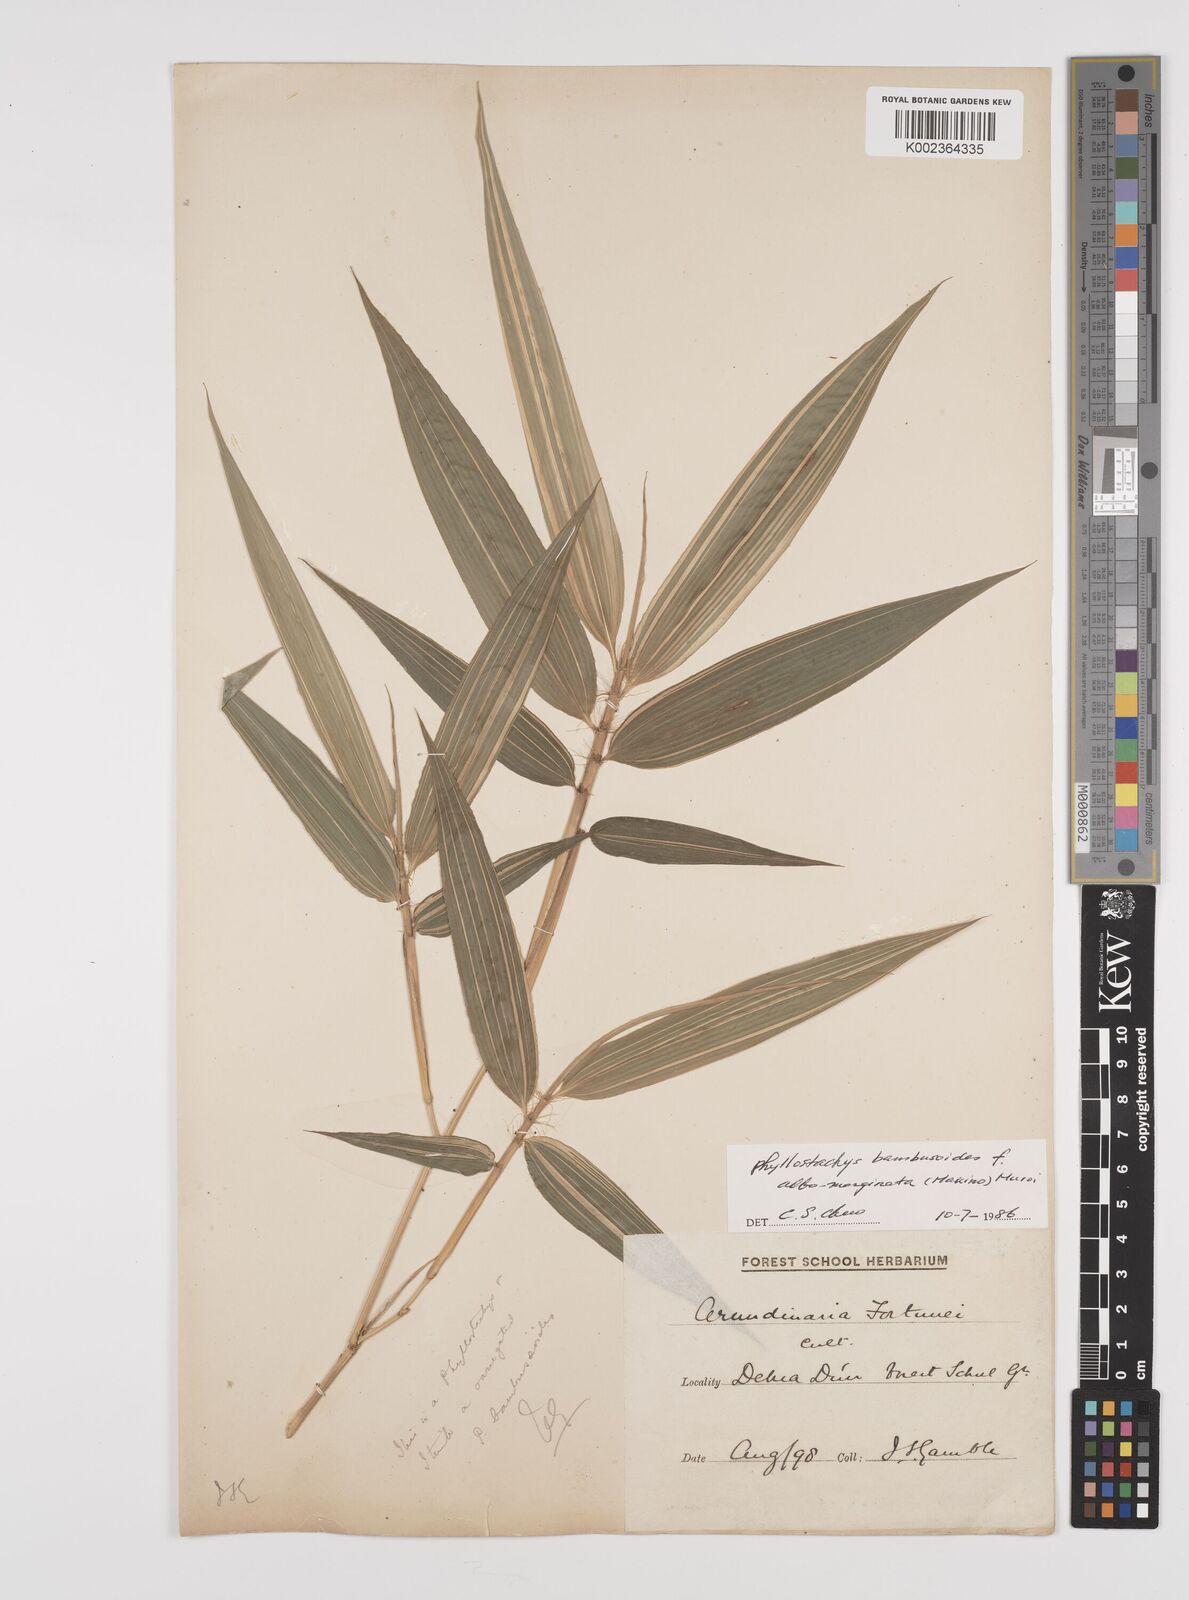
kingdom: Plantae
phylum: Tracheophyta
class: Liliopsida
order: Poales
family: Poaceae
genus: Phyllostachys
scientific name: Phyllostachys reticulata
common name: Bamboo
